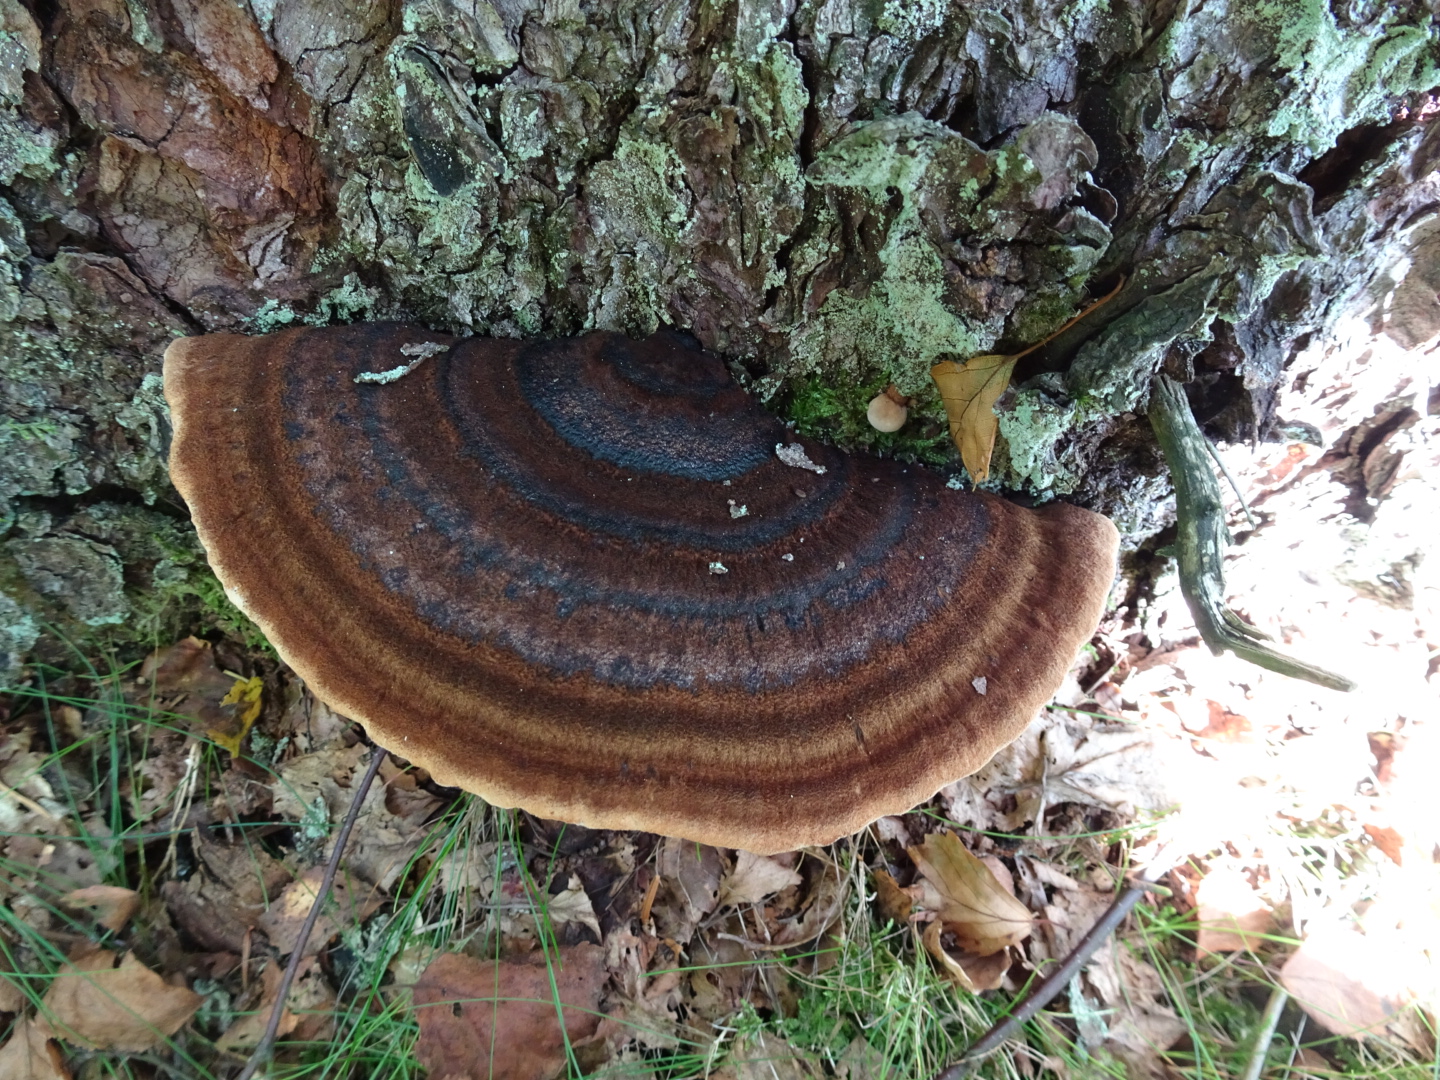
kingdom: Fungi
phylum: Basidiomycota
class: Agaricomycetes
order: Polyporales
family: Ischnodermataceae
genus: Ischnoderma
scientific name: Ischnoderma benzoinum
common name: gran-tjæreporesvamp
